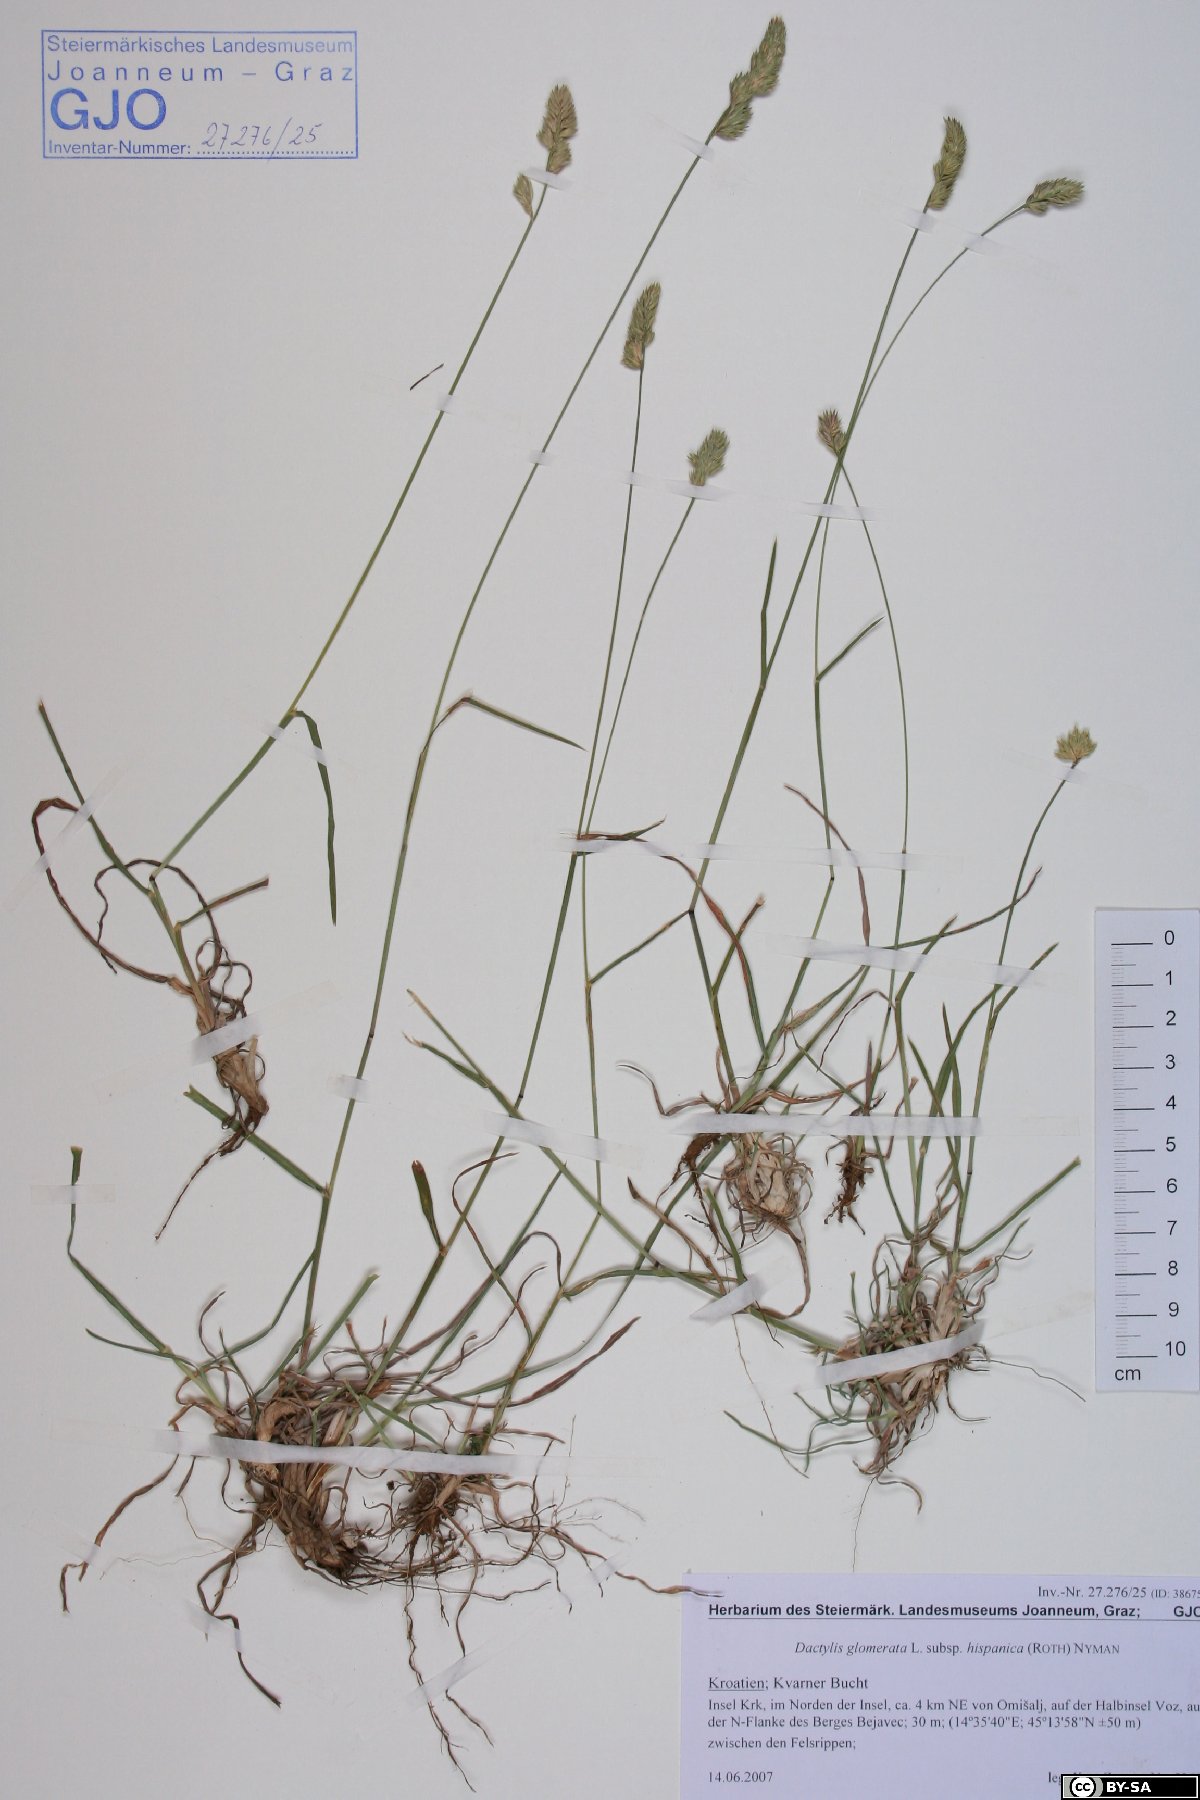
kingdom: Plantae
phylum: Tracheophyta
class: Liliopsida
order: Poales
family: Poaceae
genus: Dactylis
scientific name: Dactylis glomerata
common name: Orchardgrass
